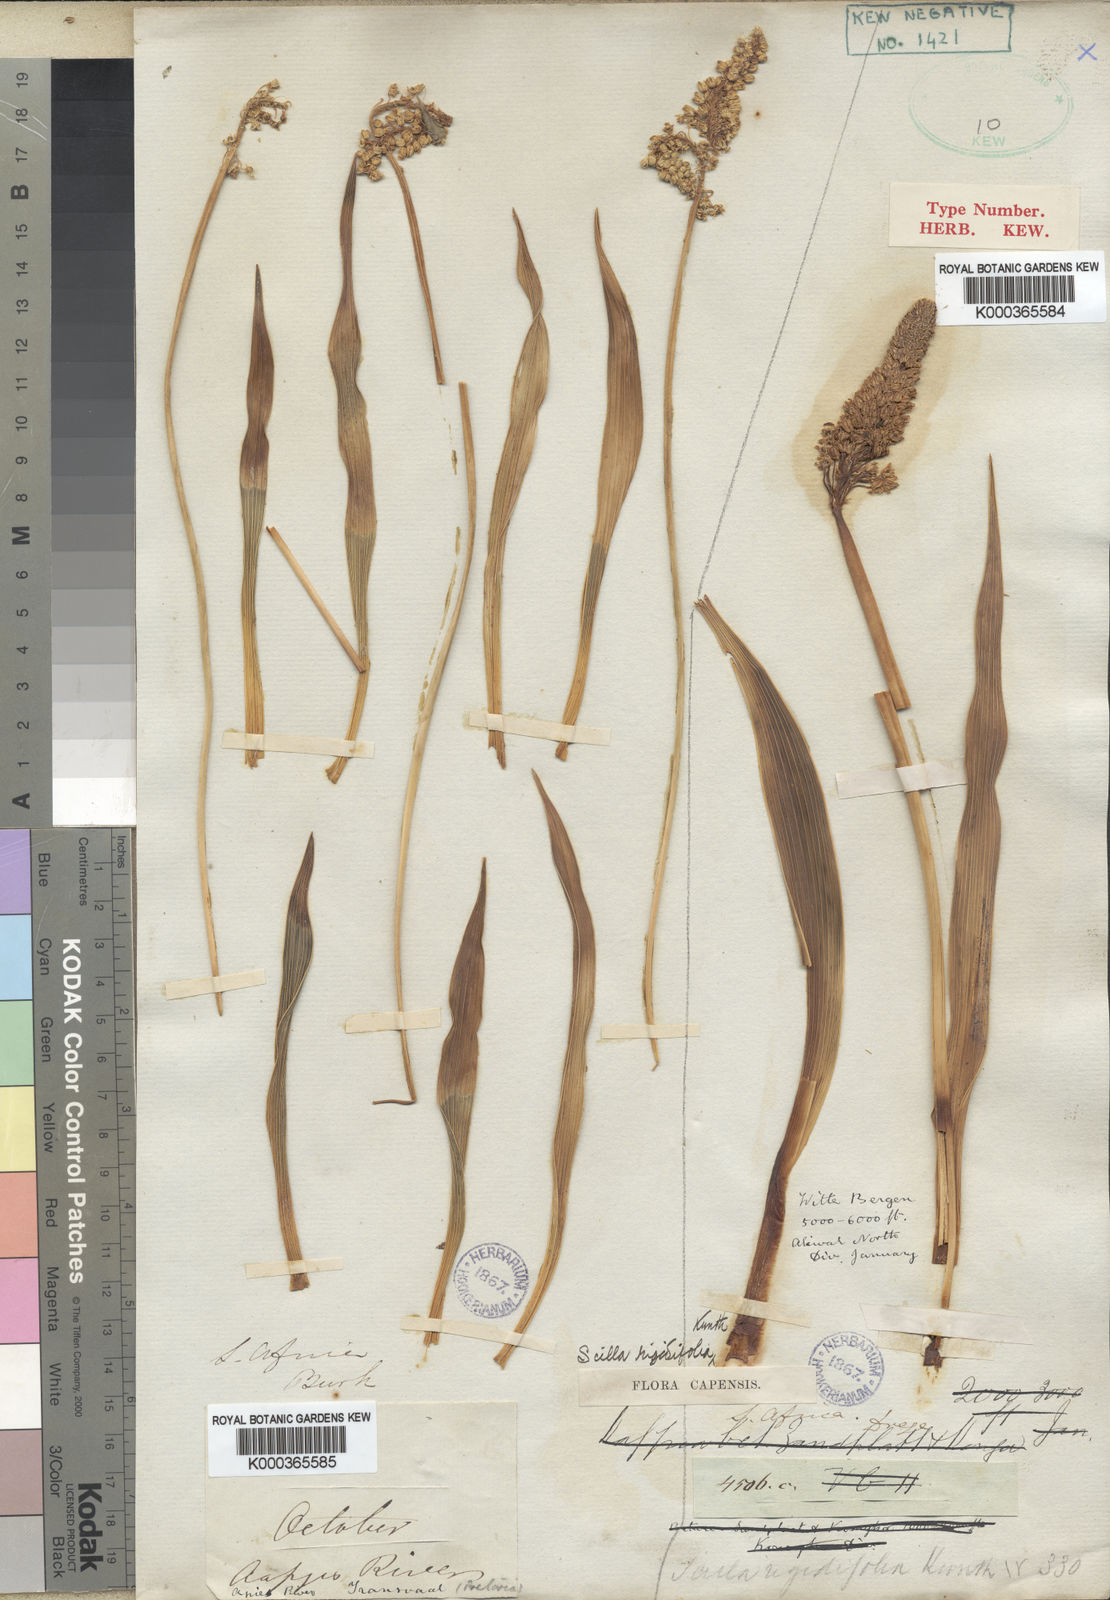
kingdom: Plantae
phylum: Tracheophyta
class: Liliopsida
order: Asparagales
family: Asparagaceae
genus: Schizocarphus
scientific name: Schizocarphus nervosus
